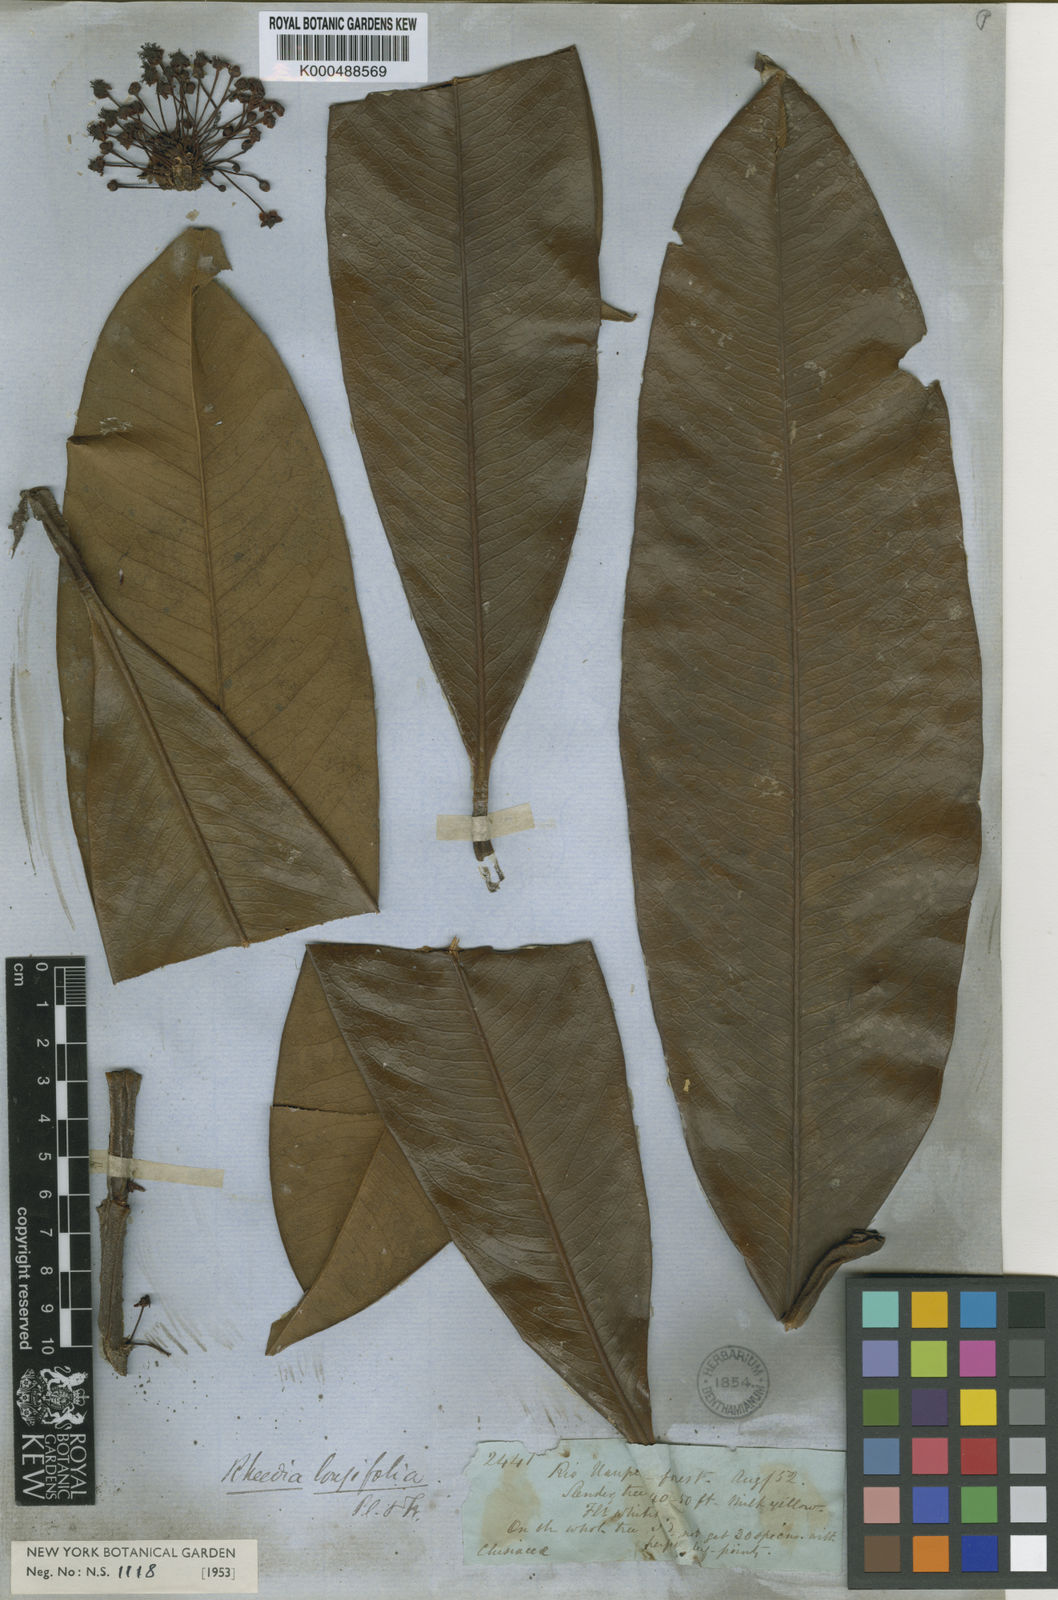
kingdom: Plantae
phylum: Tracheophyta
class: Magnoliopsida
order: Malpighiales
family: Clusiaceae
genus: Garcinia
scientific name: Garcinia longifolia
